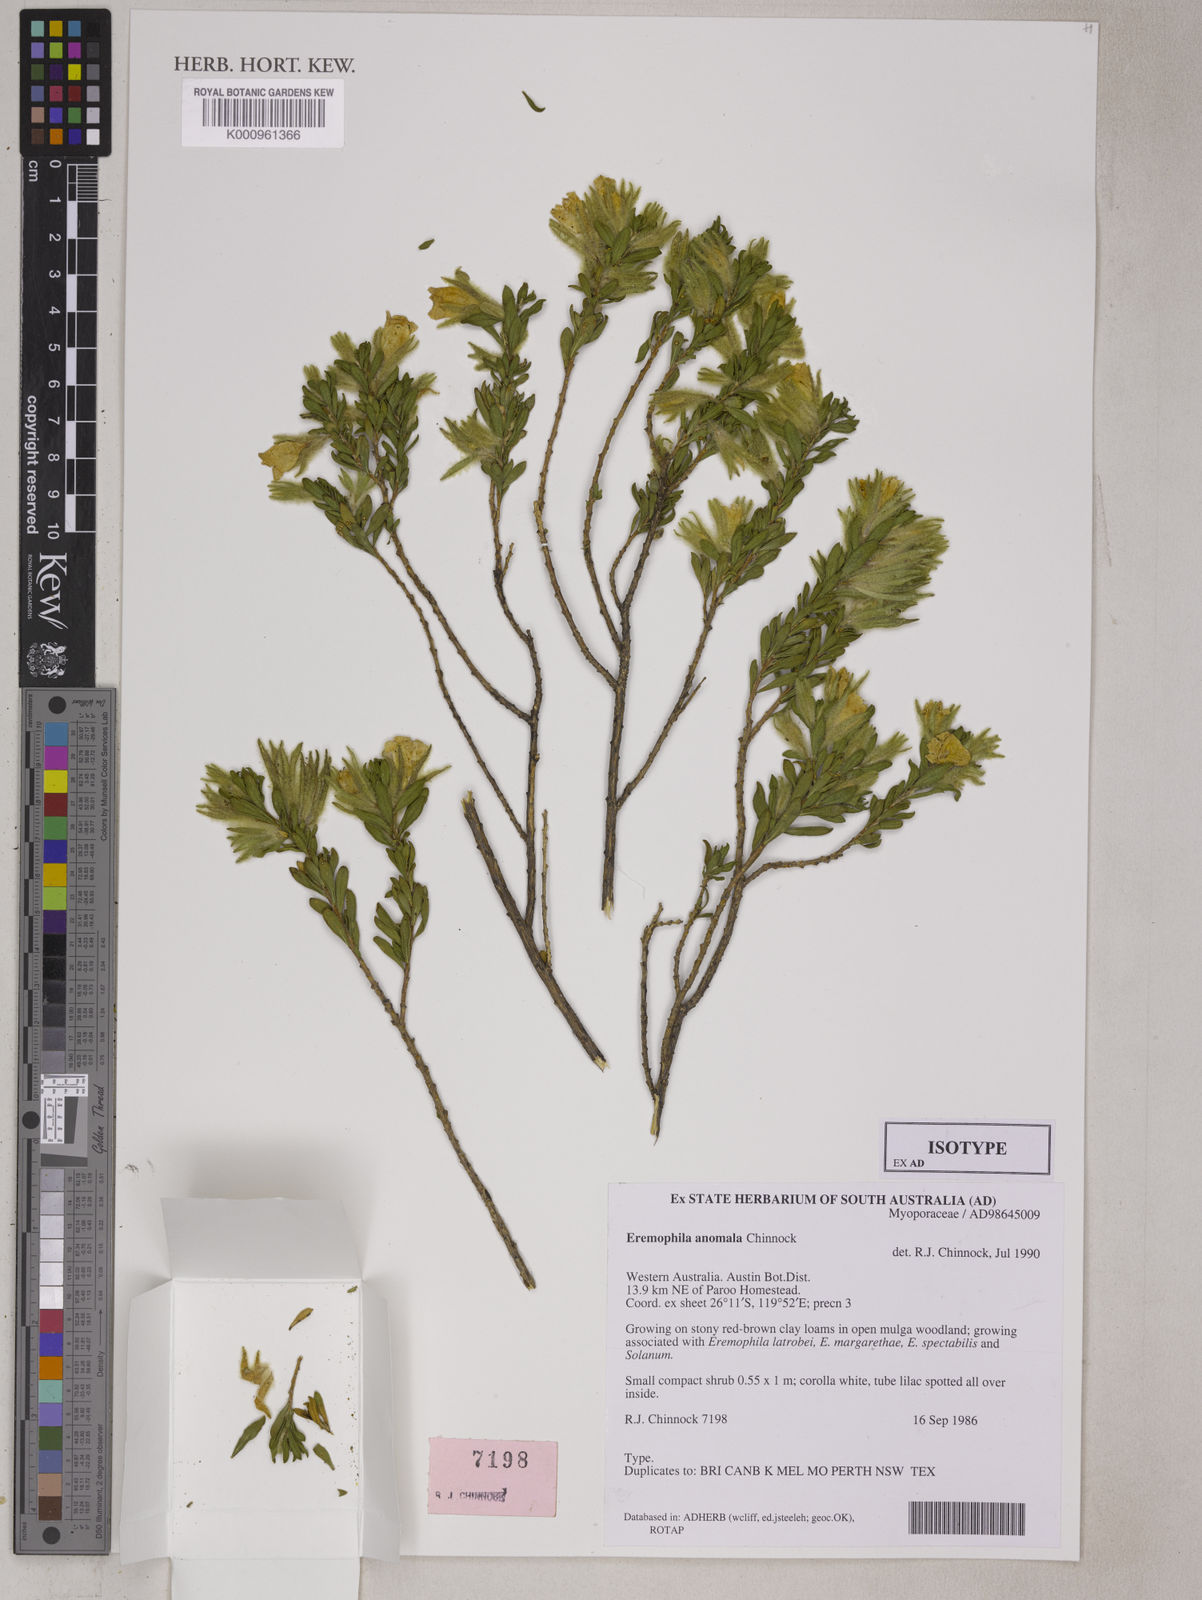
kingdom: Plantae
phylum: Tracheophyta
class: Magnoliopsida
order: Lamiales
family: Scrophulariaceae
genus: Eremophila
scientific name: Eremophila anomala
